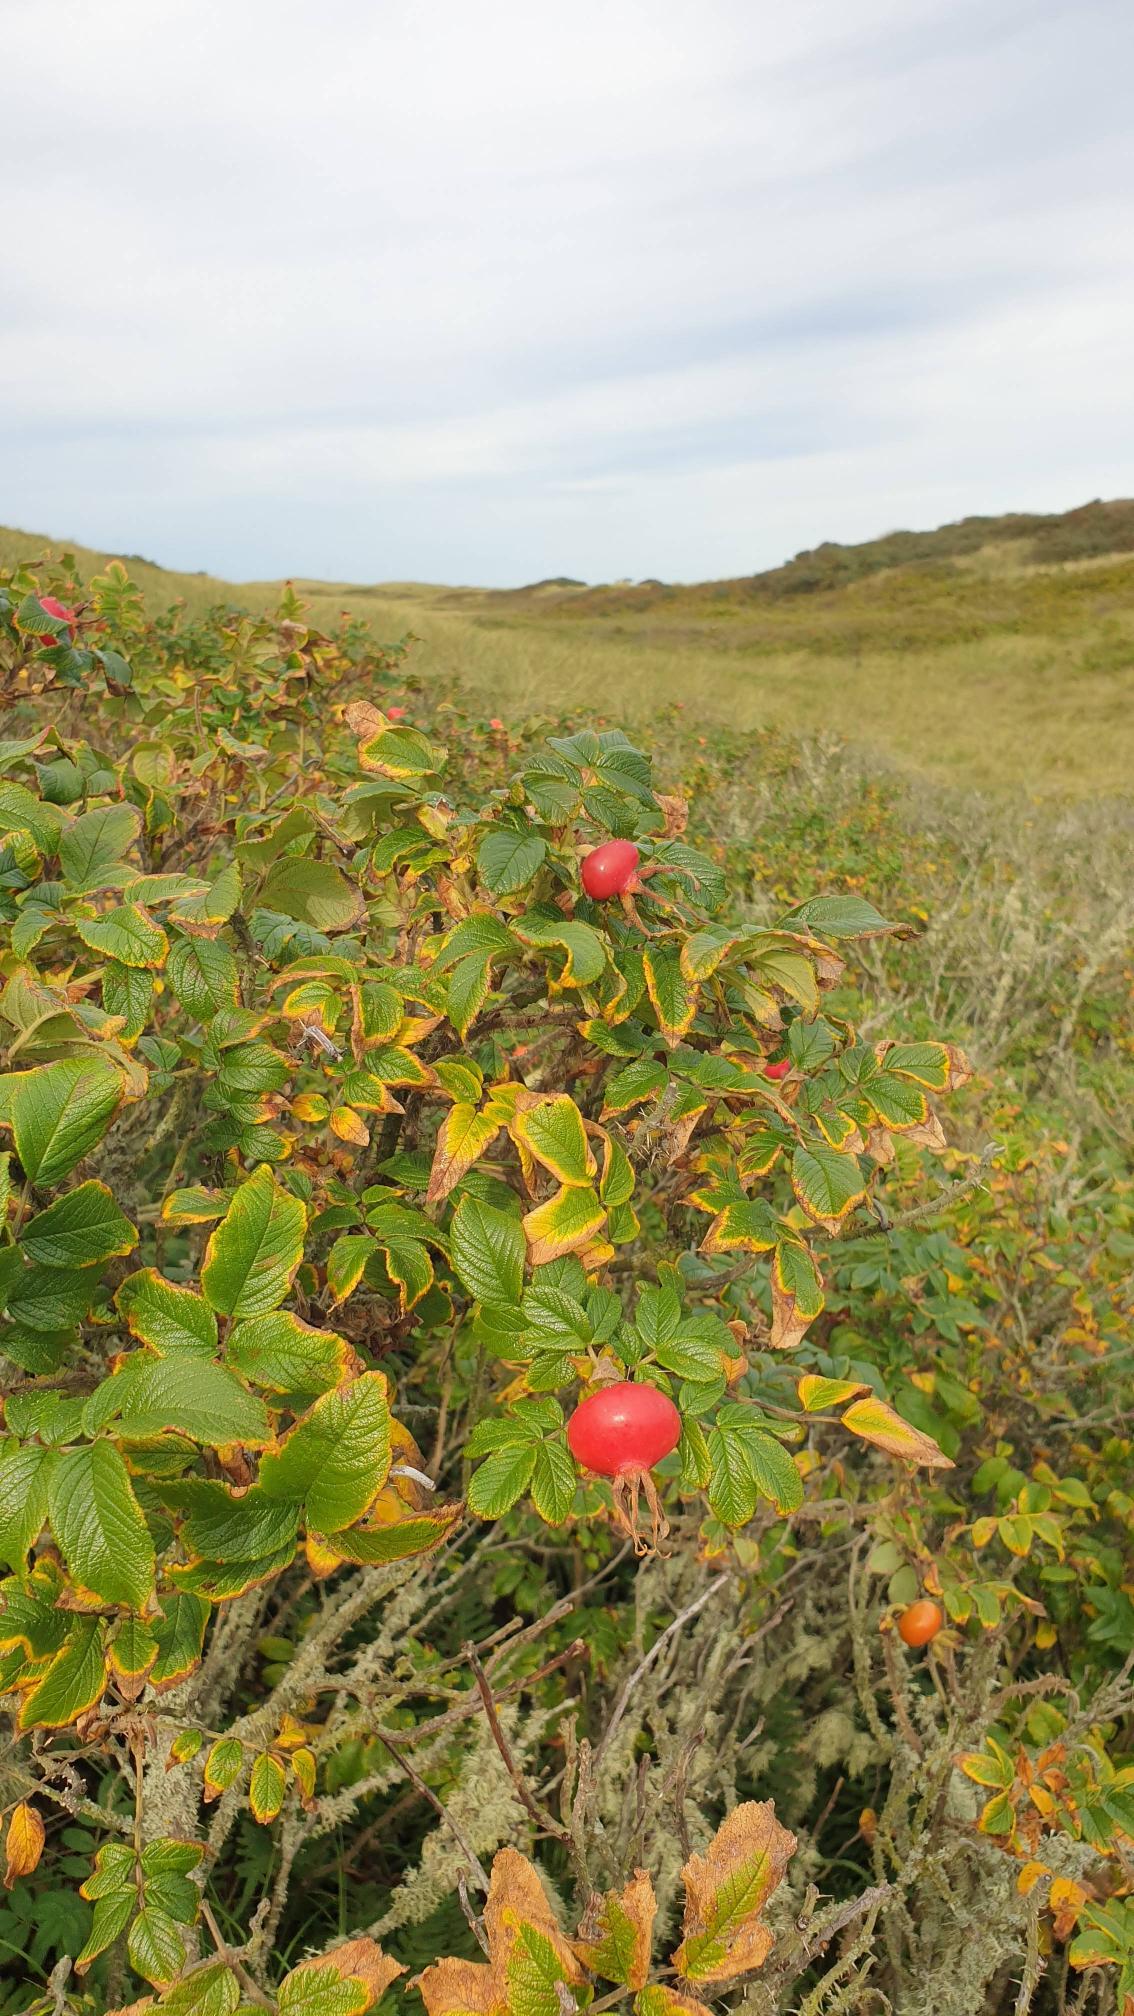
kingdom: Plantae
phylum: Tracheophyta
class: Magnoliopsida
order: Rosales
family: Rosaceae
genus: Rosa
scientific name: Rosa rugosa
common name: Rynket rose
